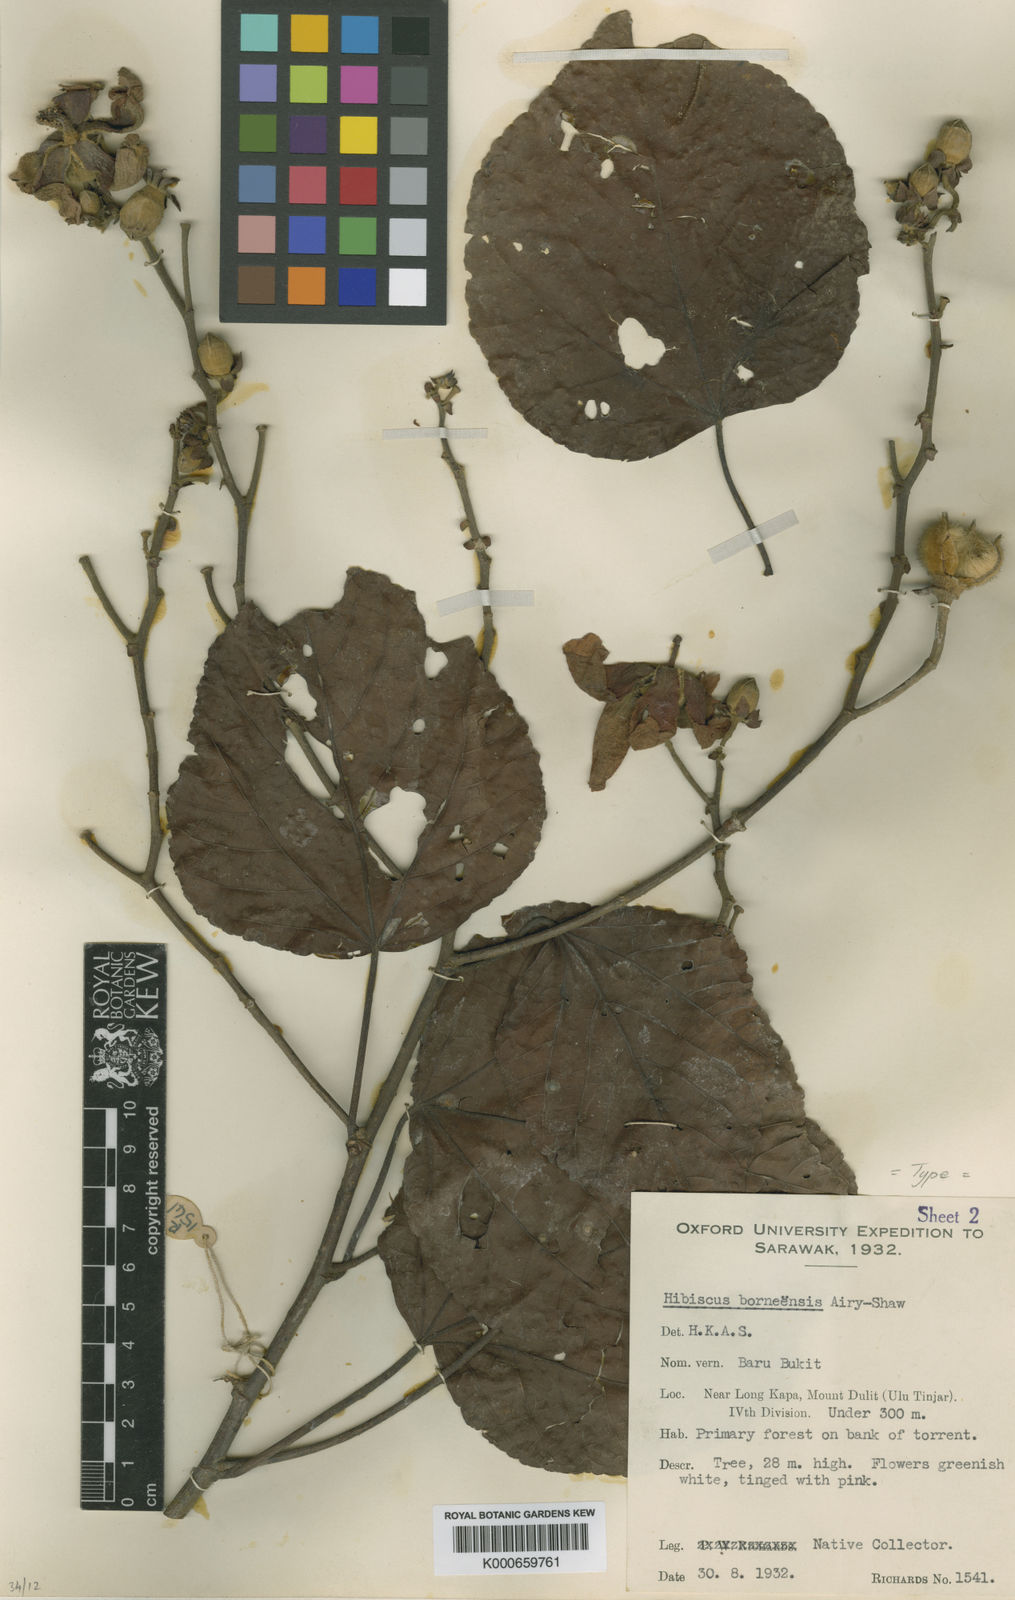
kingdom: Plantae
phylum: Tracheophyta
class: Magnoliopsida
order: Malvales
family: Malvaceae
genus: Talipariti
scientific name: Talipariti borneense
